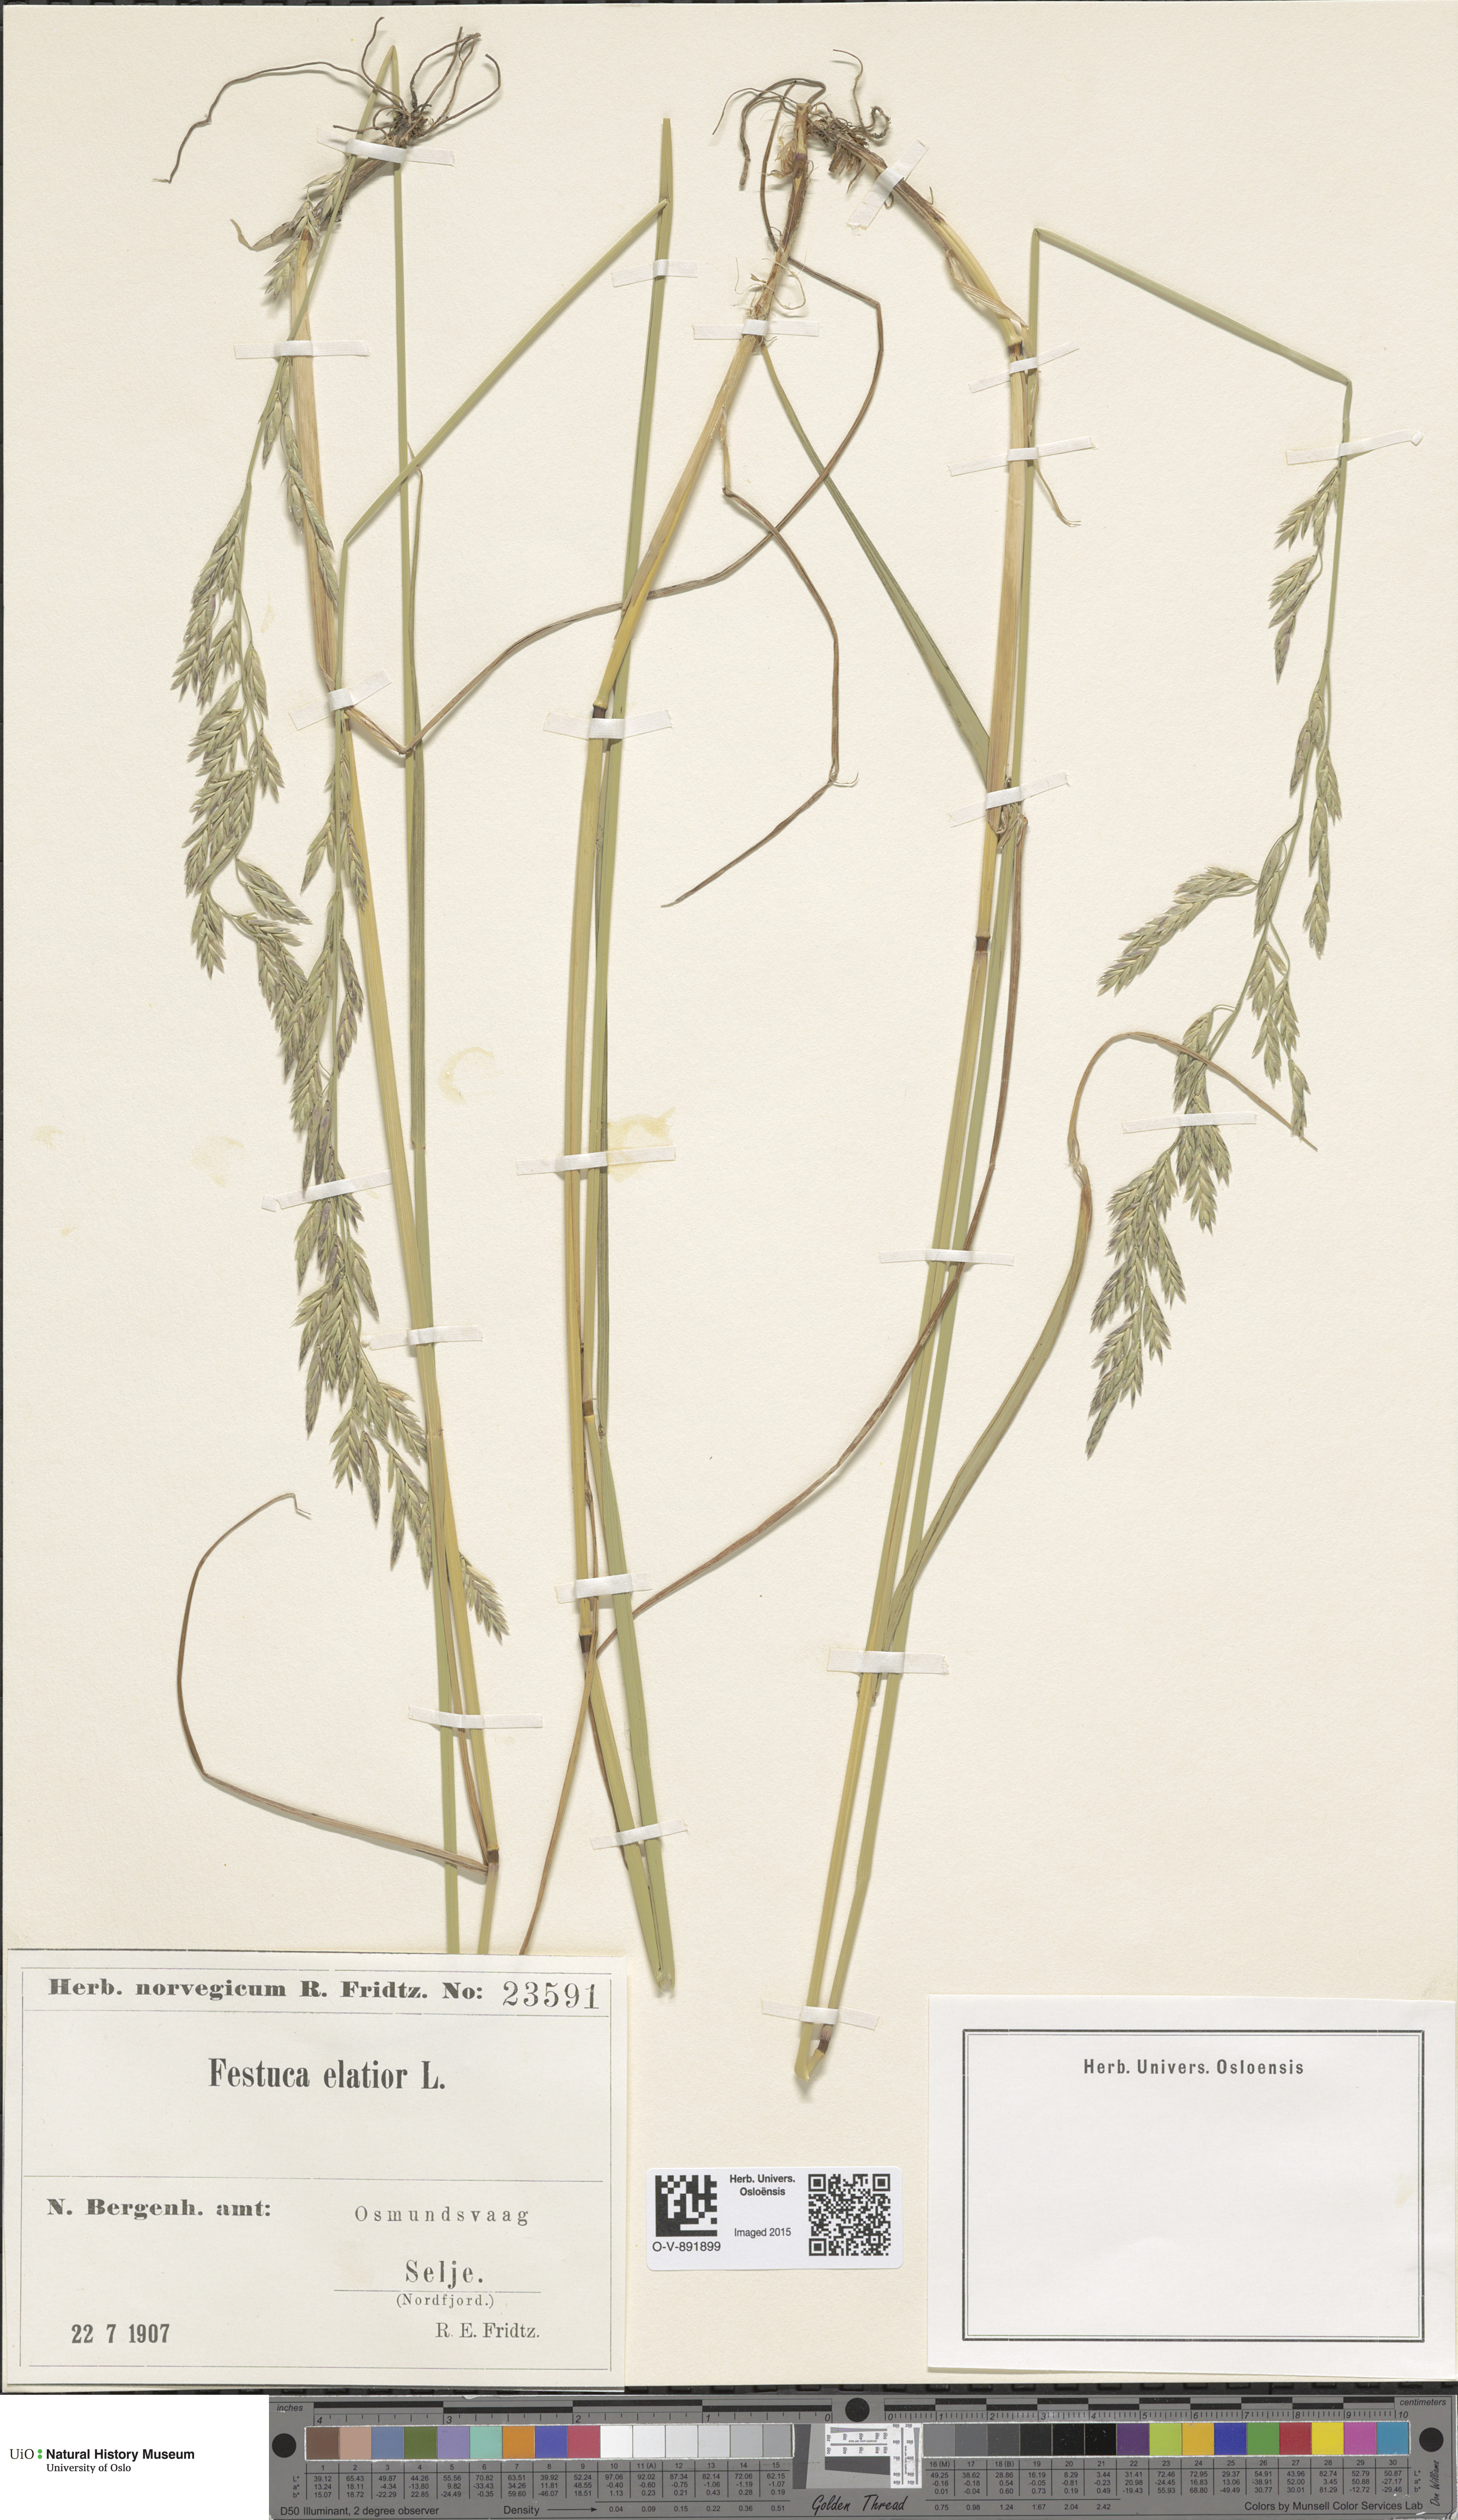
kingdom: Plantae
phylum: Tracheophyta
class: Liliopsida
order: Poales
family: Poaceae
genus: Lolium
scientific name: Lolium arundinaceum
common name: Reed fescue
